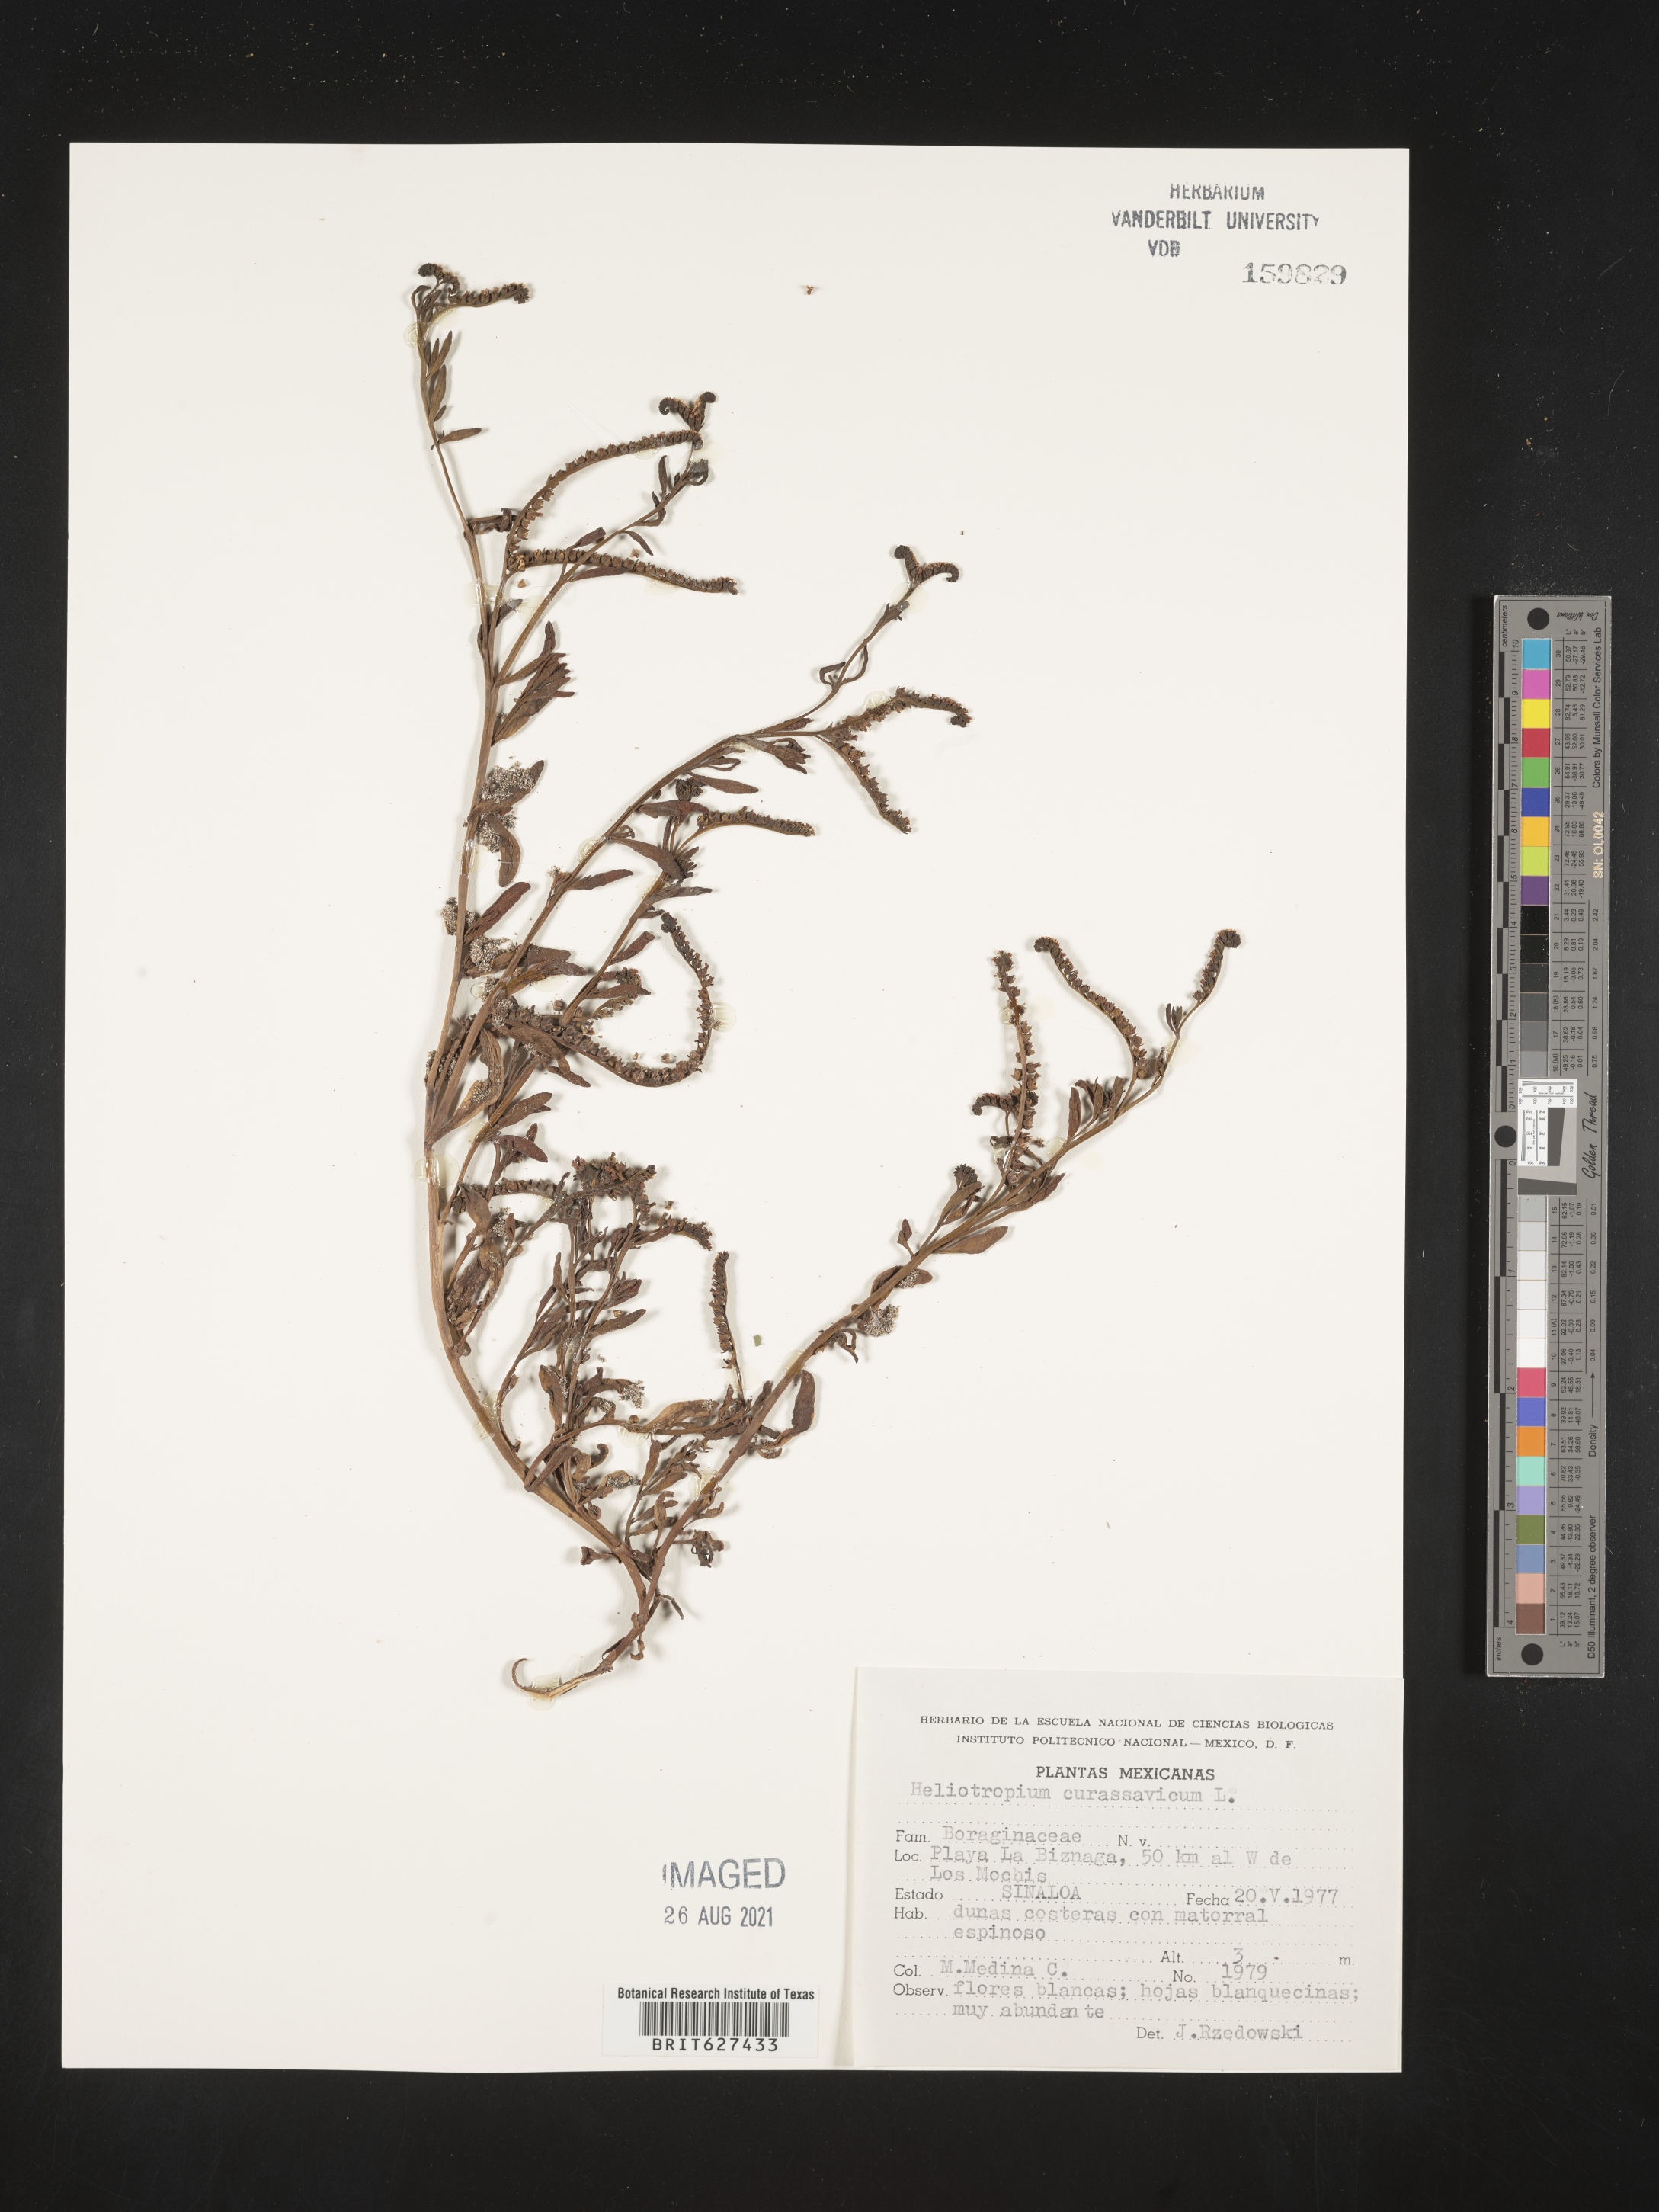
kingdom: Plantae
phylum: Tracheophyta
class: Magnoliopsida
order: Boraginales
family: Heliotropiaceae
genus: Heliotropium
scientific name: Heliotropium
